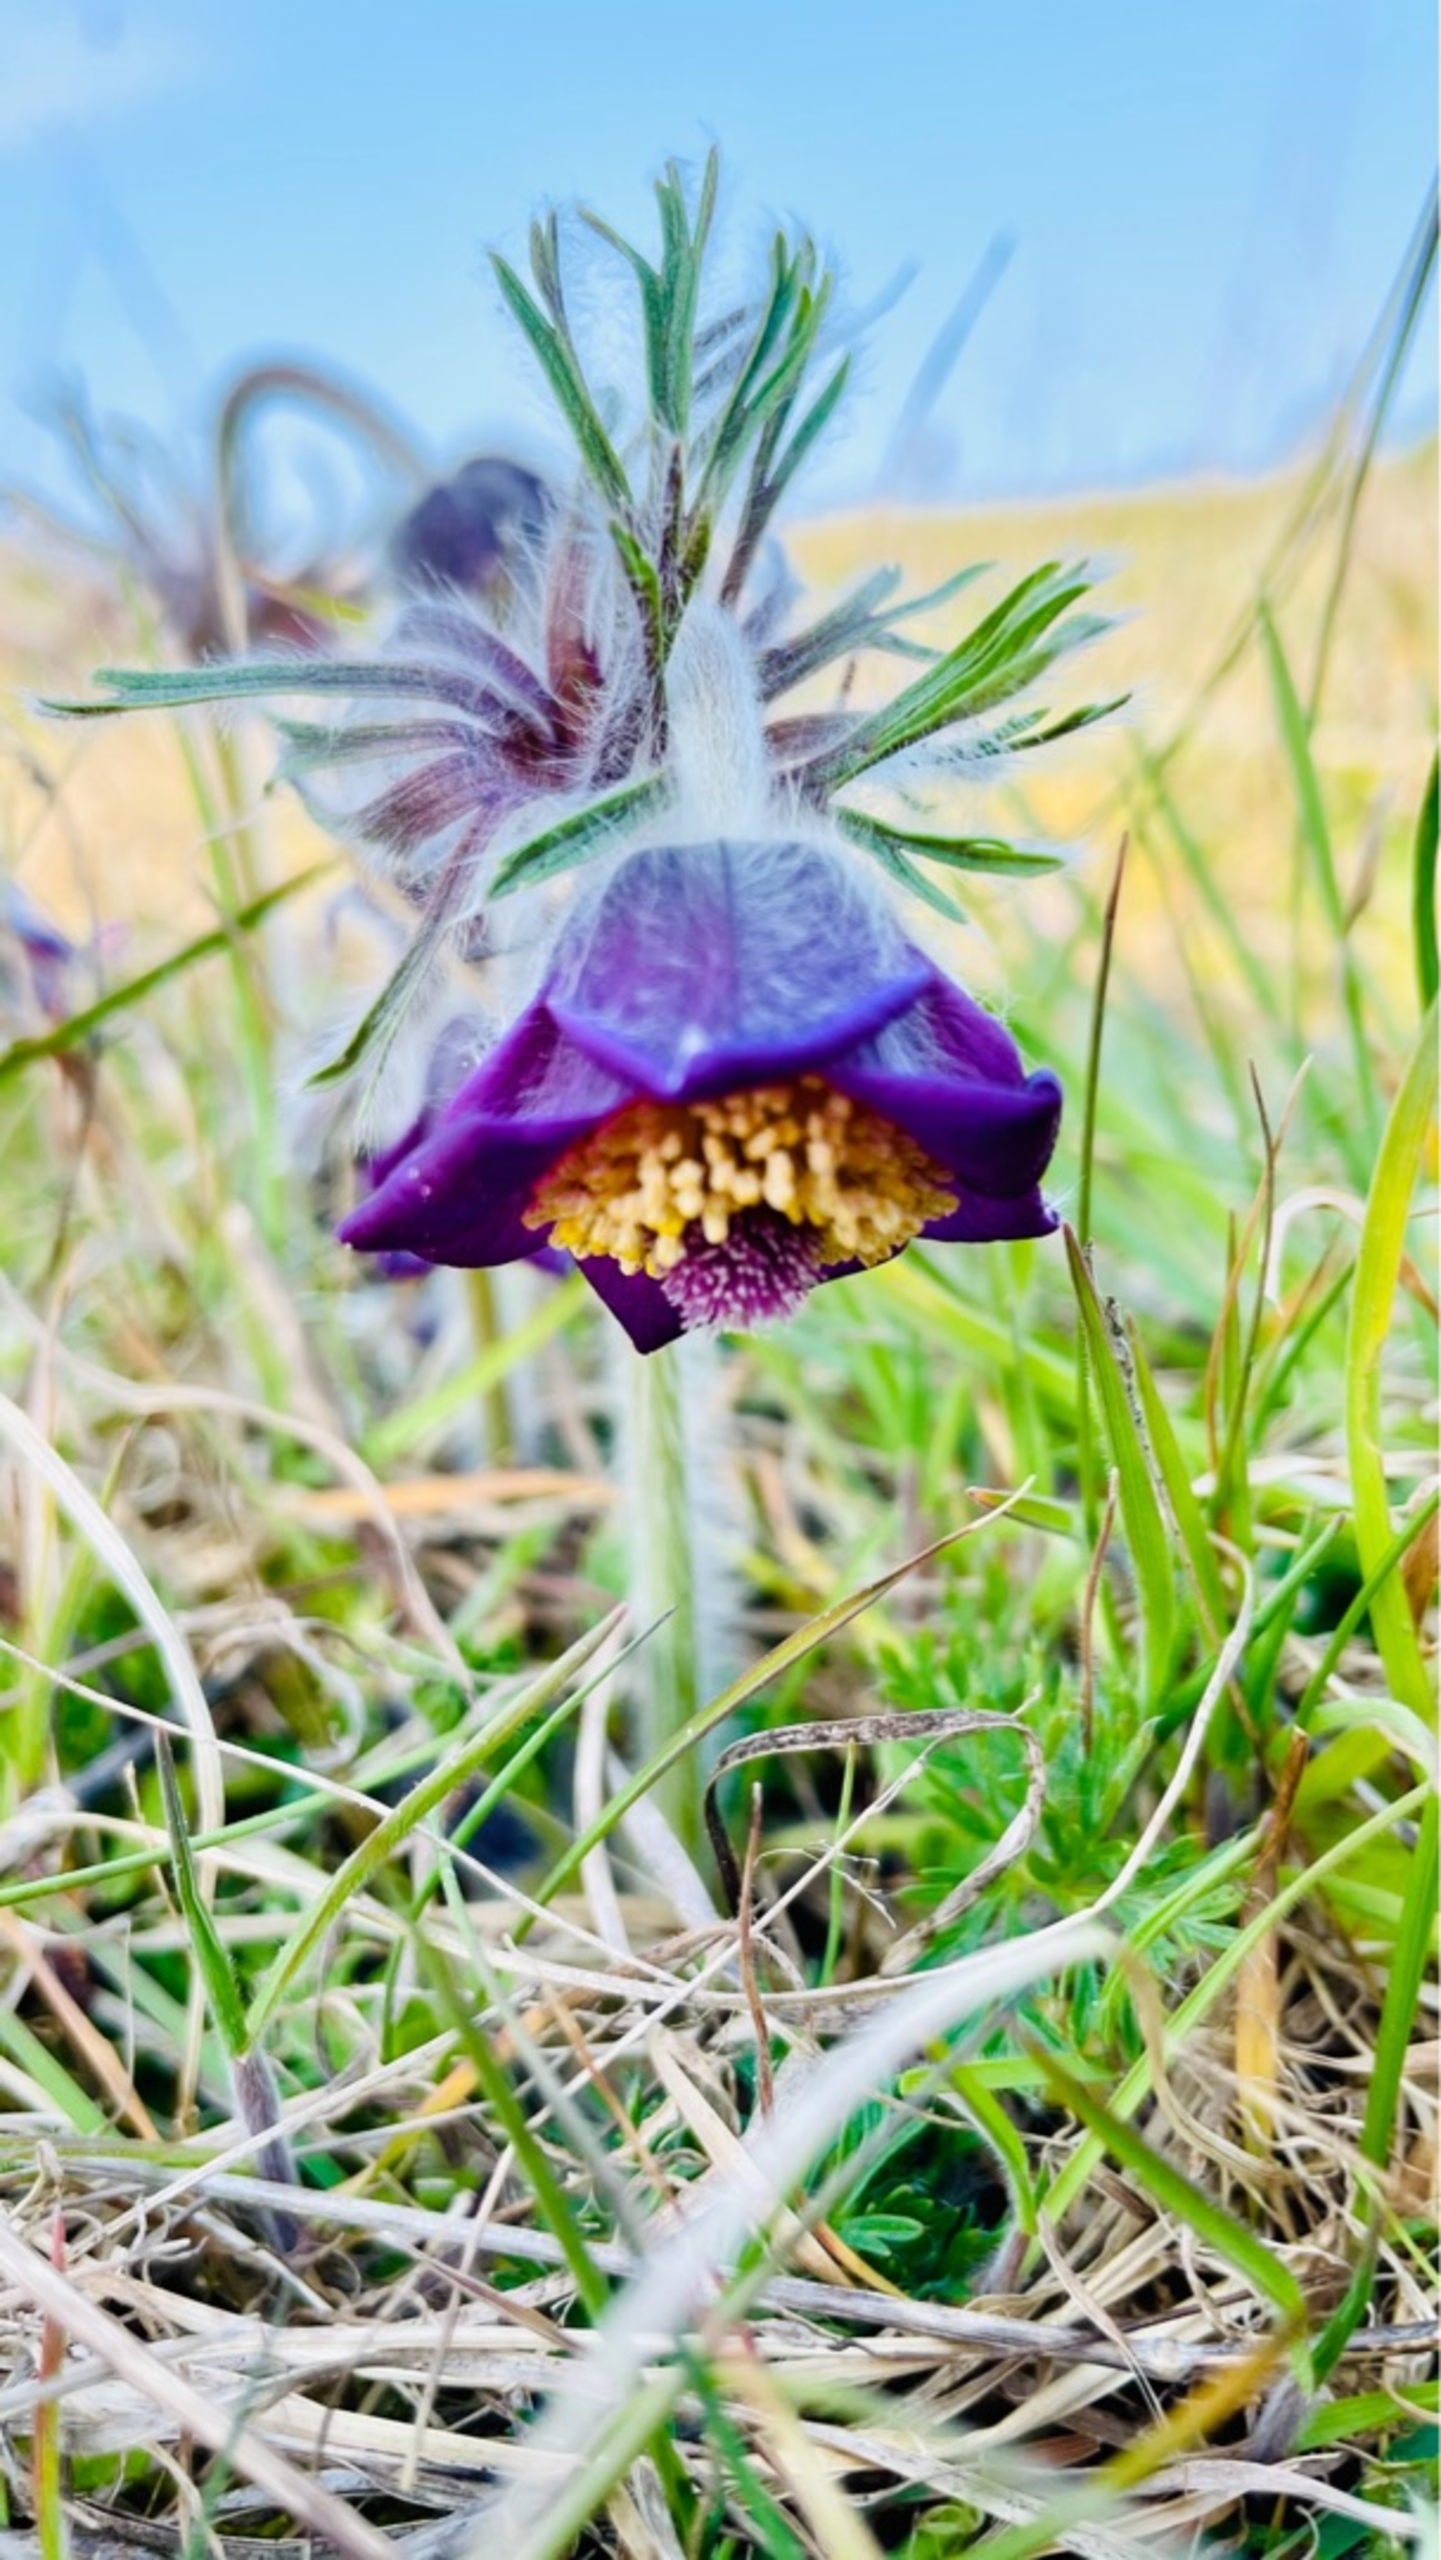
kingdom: Plantae
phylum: Tracheophyta
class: Magnoliopsida
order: Ranunculales
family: Ranunculaceae
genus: Pulsatilla
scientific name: Pulsatilla pratensis
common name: Nikkende kobjælde
